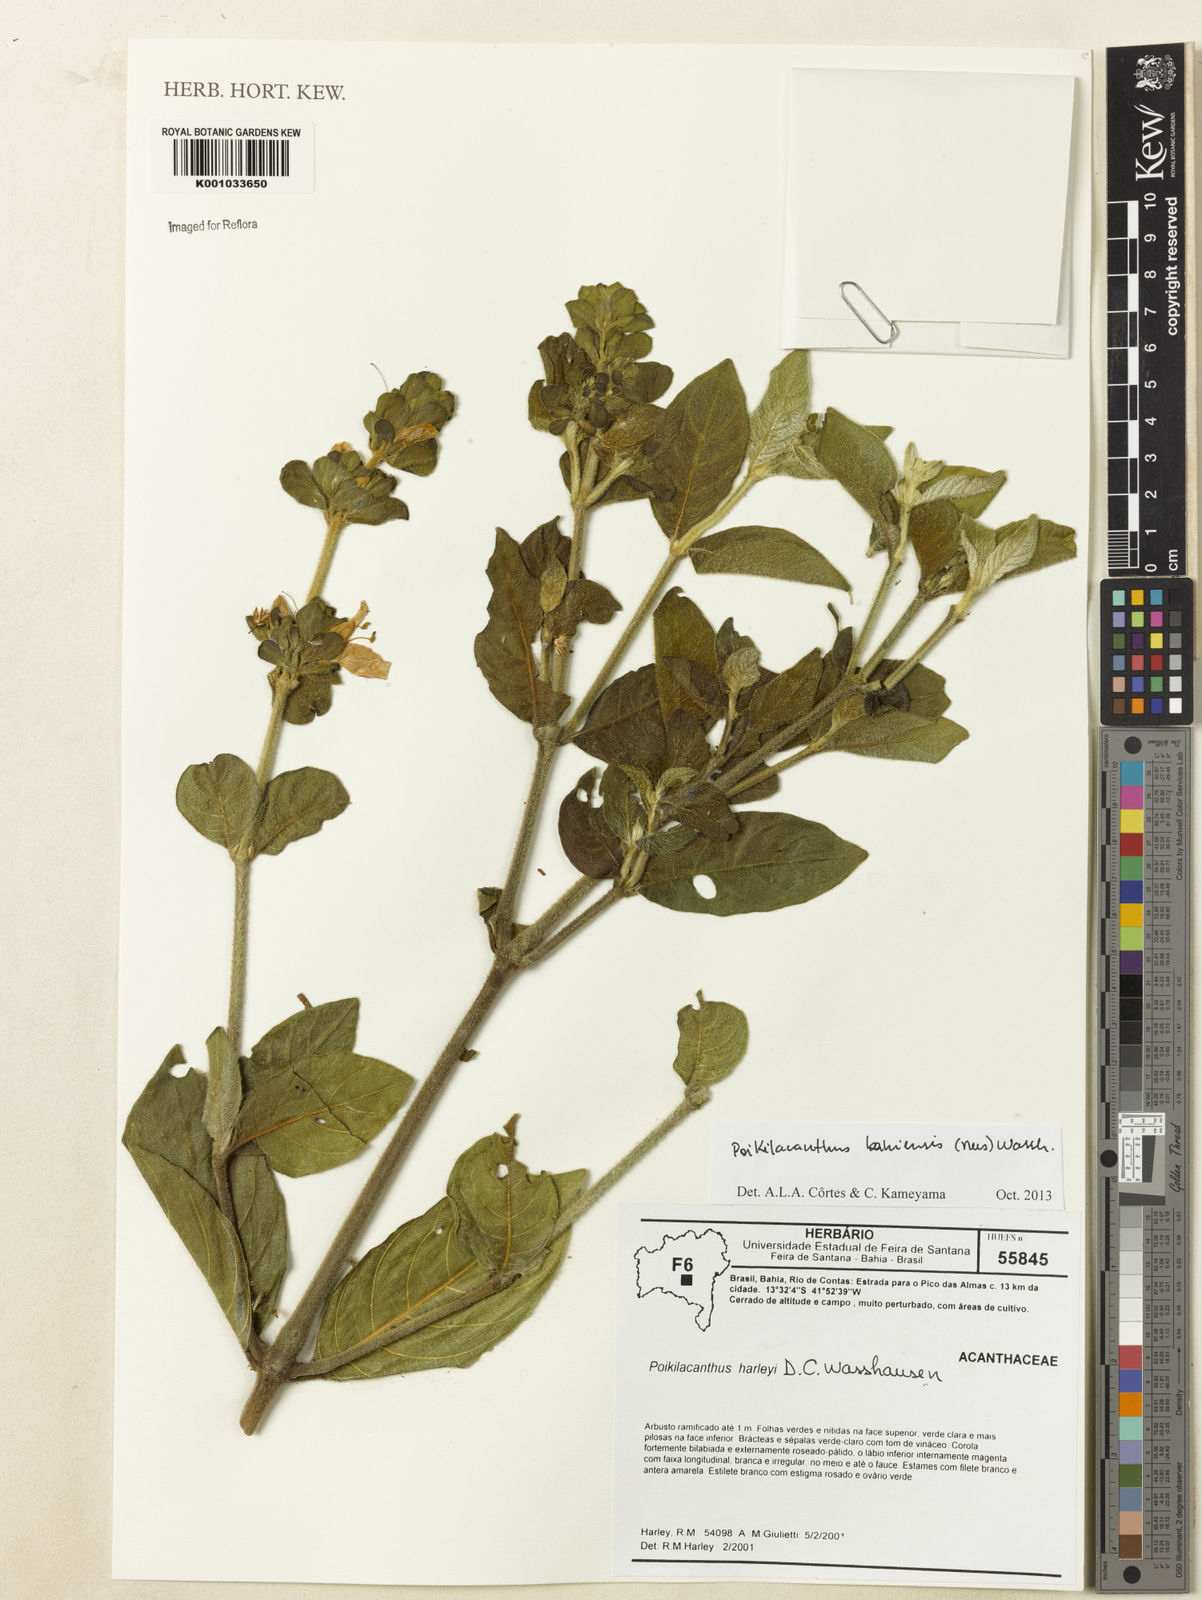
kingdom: Plantae
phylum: Tracheophyta
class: Magnoliopsida
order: Lamiales
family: Acanthaceae
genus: Poikilacanthus
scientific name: Poikilacanthus bahiensis
